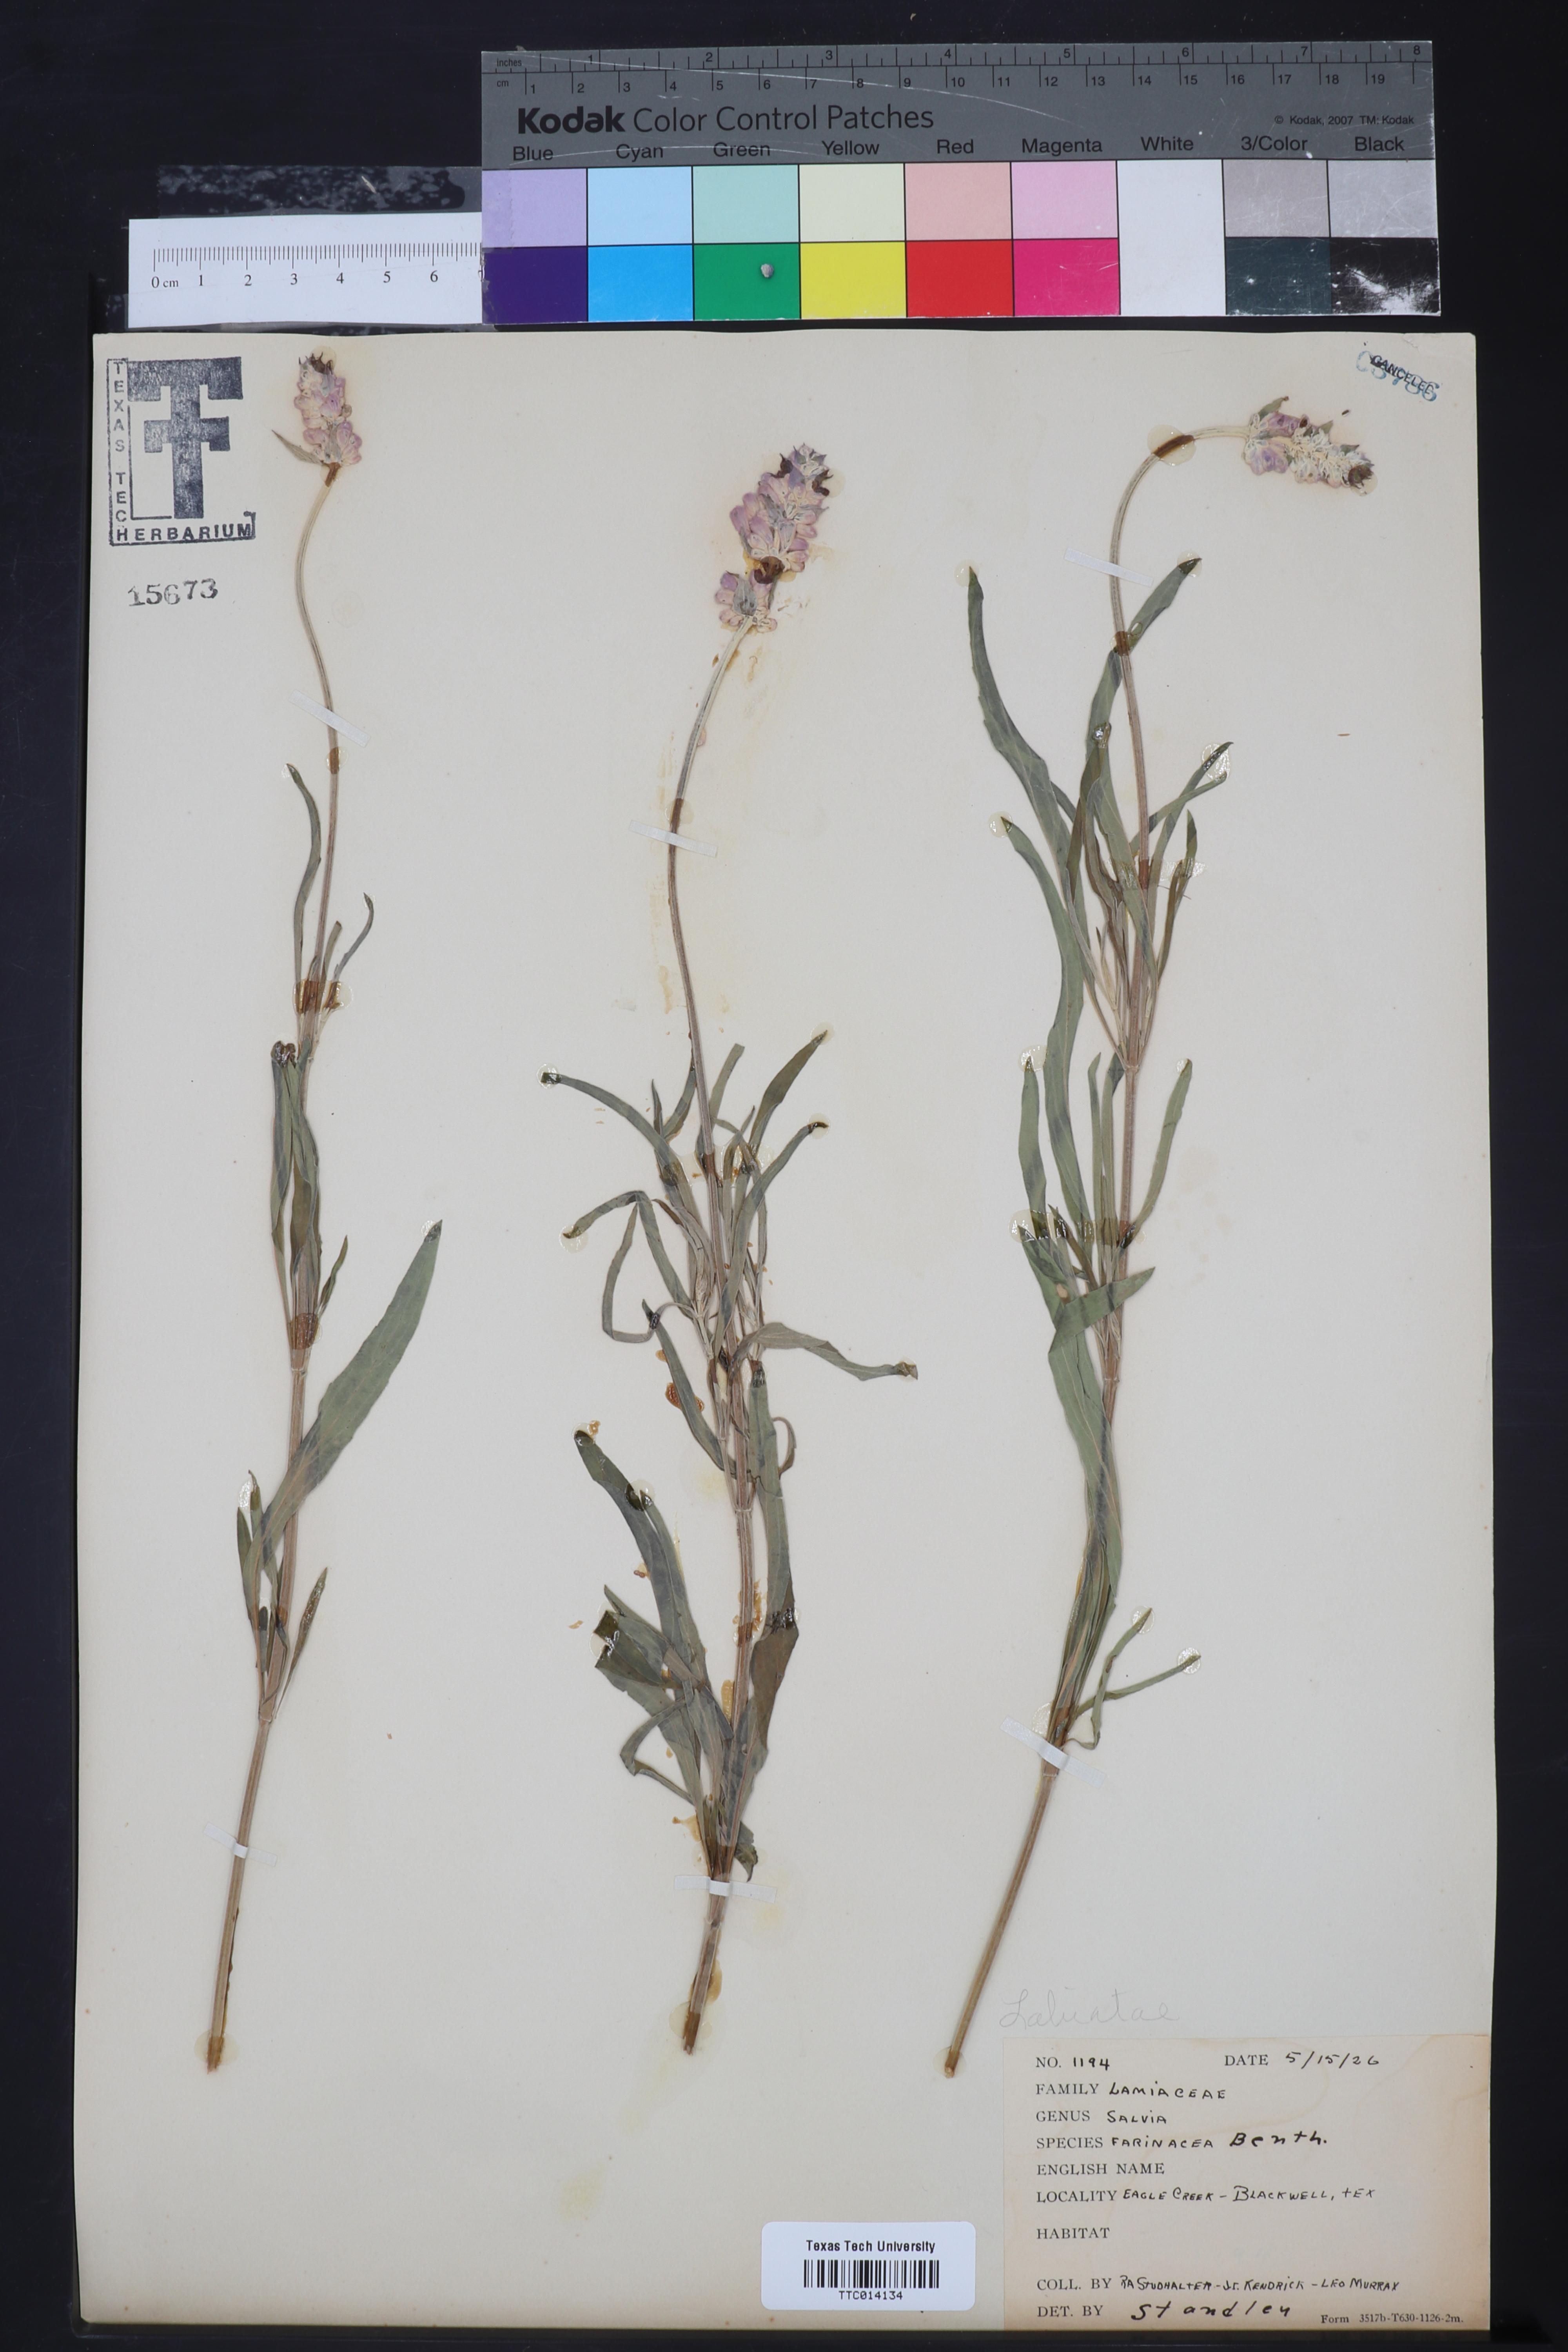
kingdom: Plantae
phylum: Tracheophyta
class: Magnoliopsida
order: Lamiales
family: Lamiaceae
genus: Salvia
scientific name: Salvia farinacea
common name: Mealy sage
